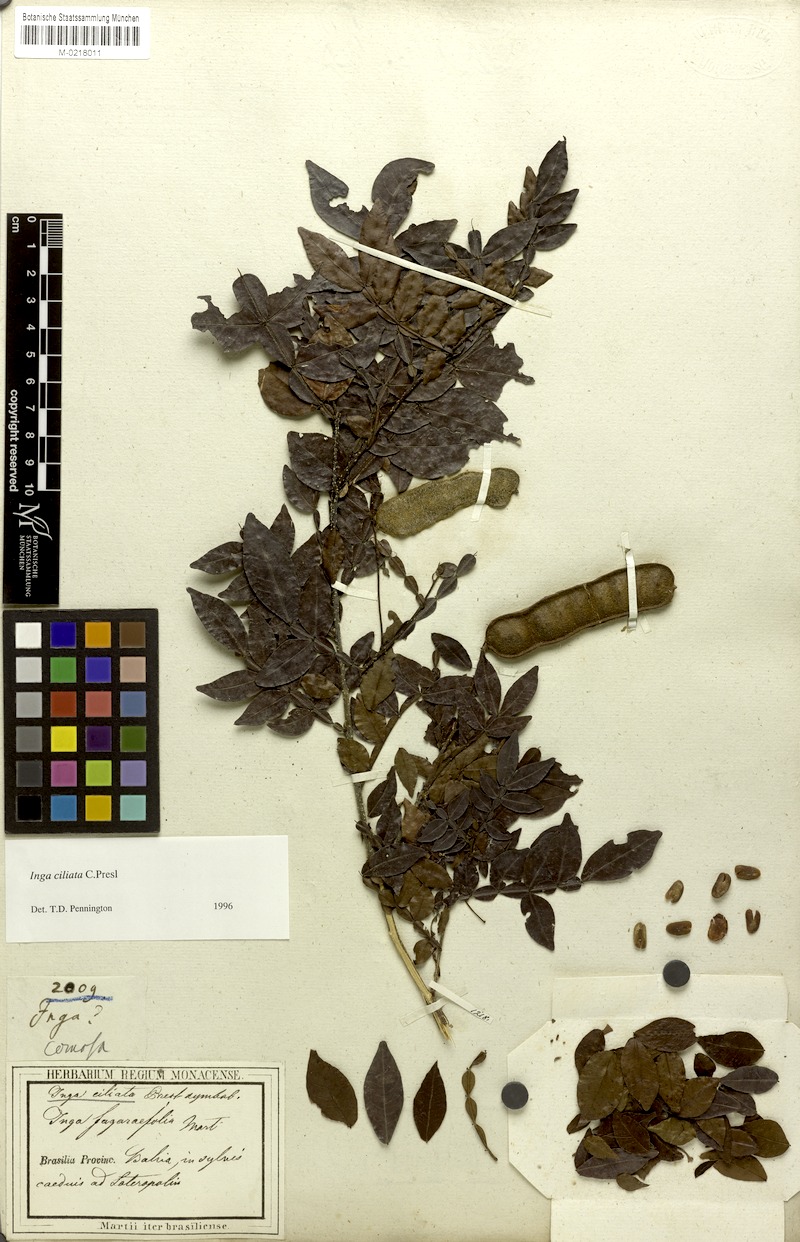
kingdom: Plantae
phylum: Tracheophyta
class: Magnoliopsida
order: Fabales
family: Fabaceae
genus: Inga
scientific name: Inga ciliata
